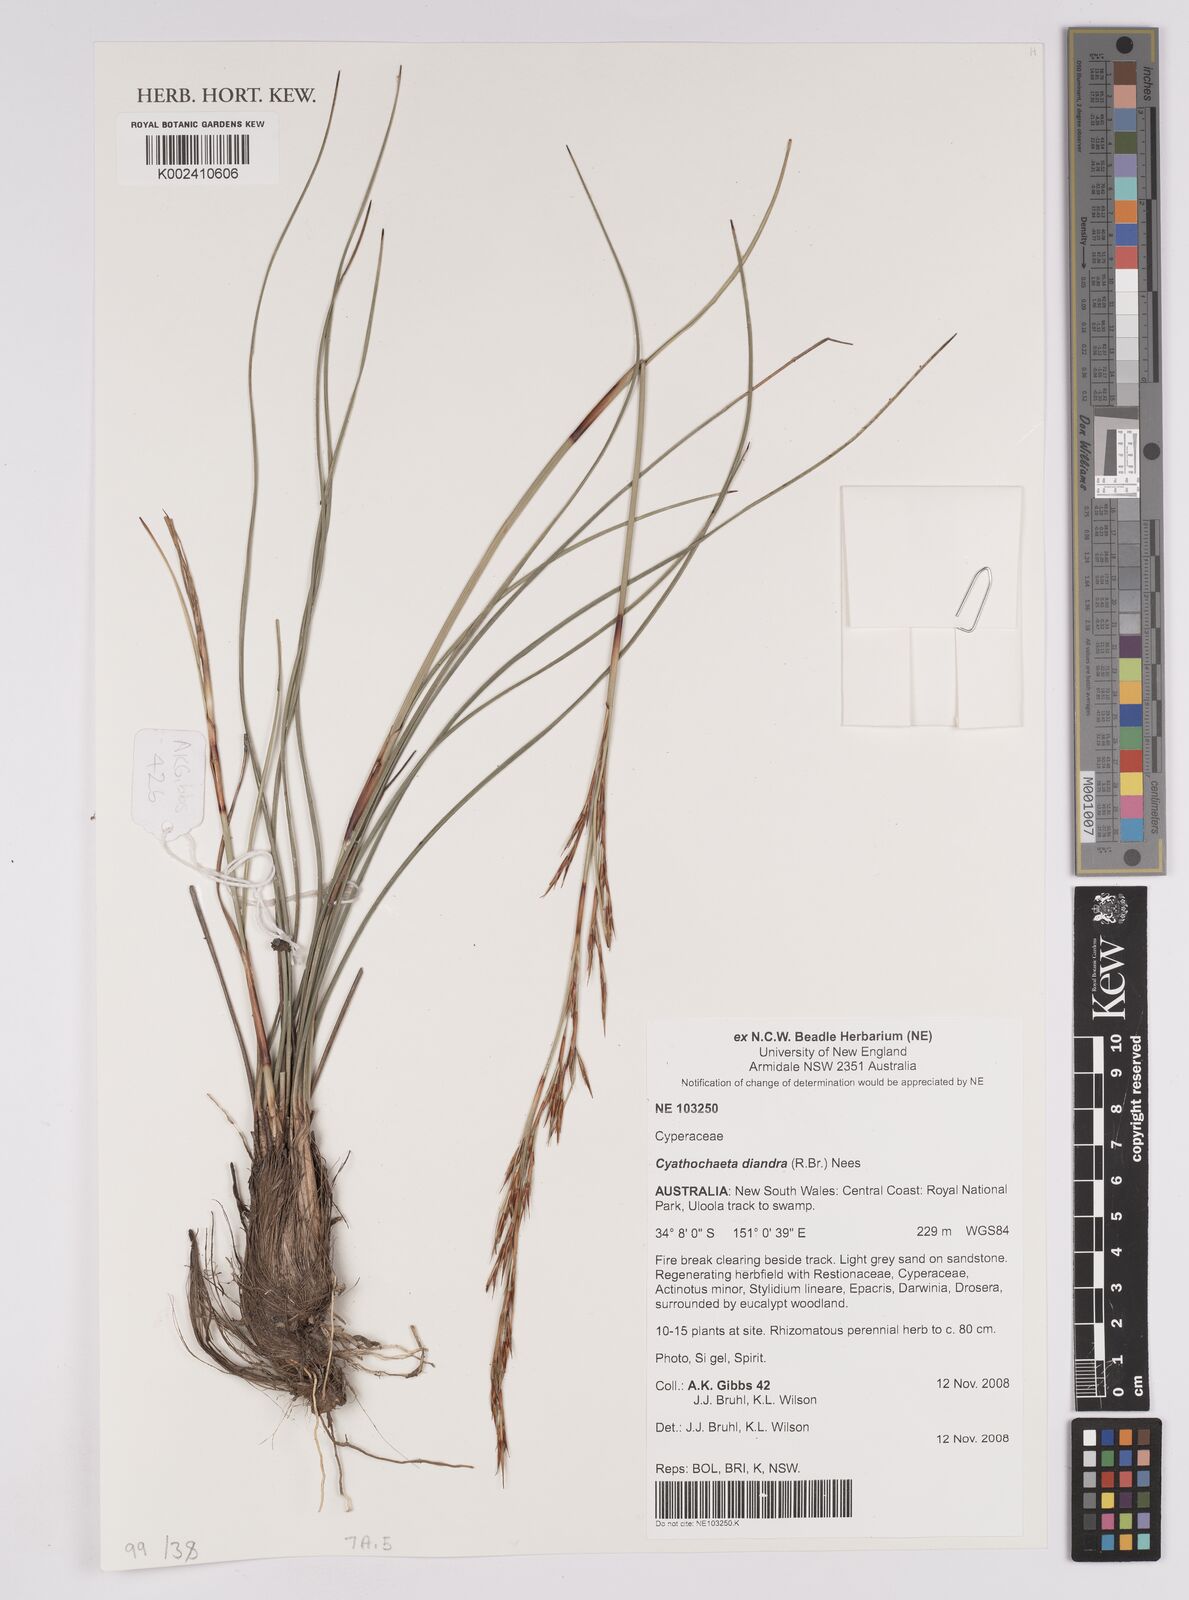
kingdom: Plantae
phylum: Tracheophyta
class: Liliopsida
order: Poales
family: Cyperaceae
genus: Cyathochaeta
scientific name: Cyathochaeta diandra
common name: Sheath rush
